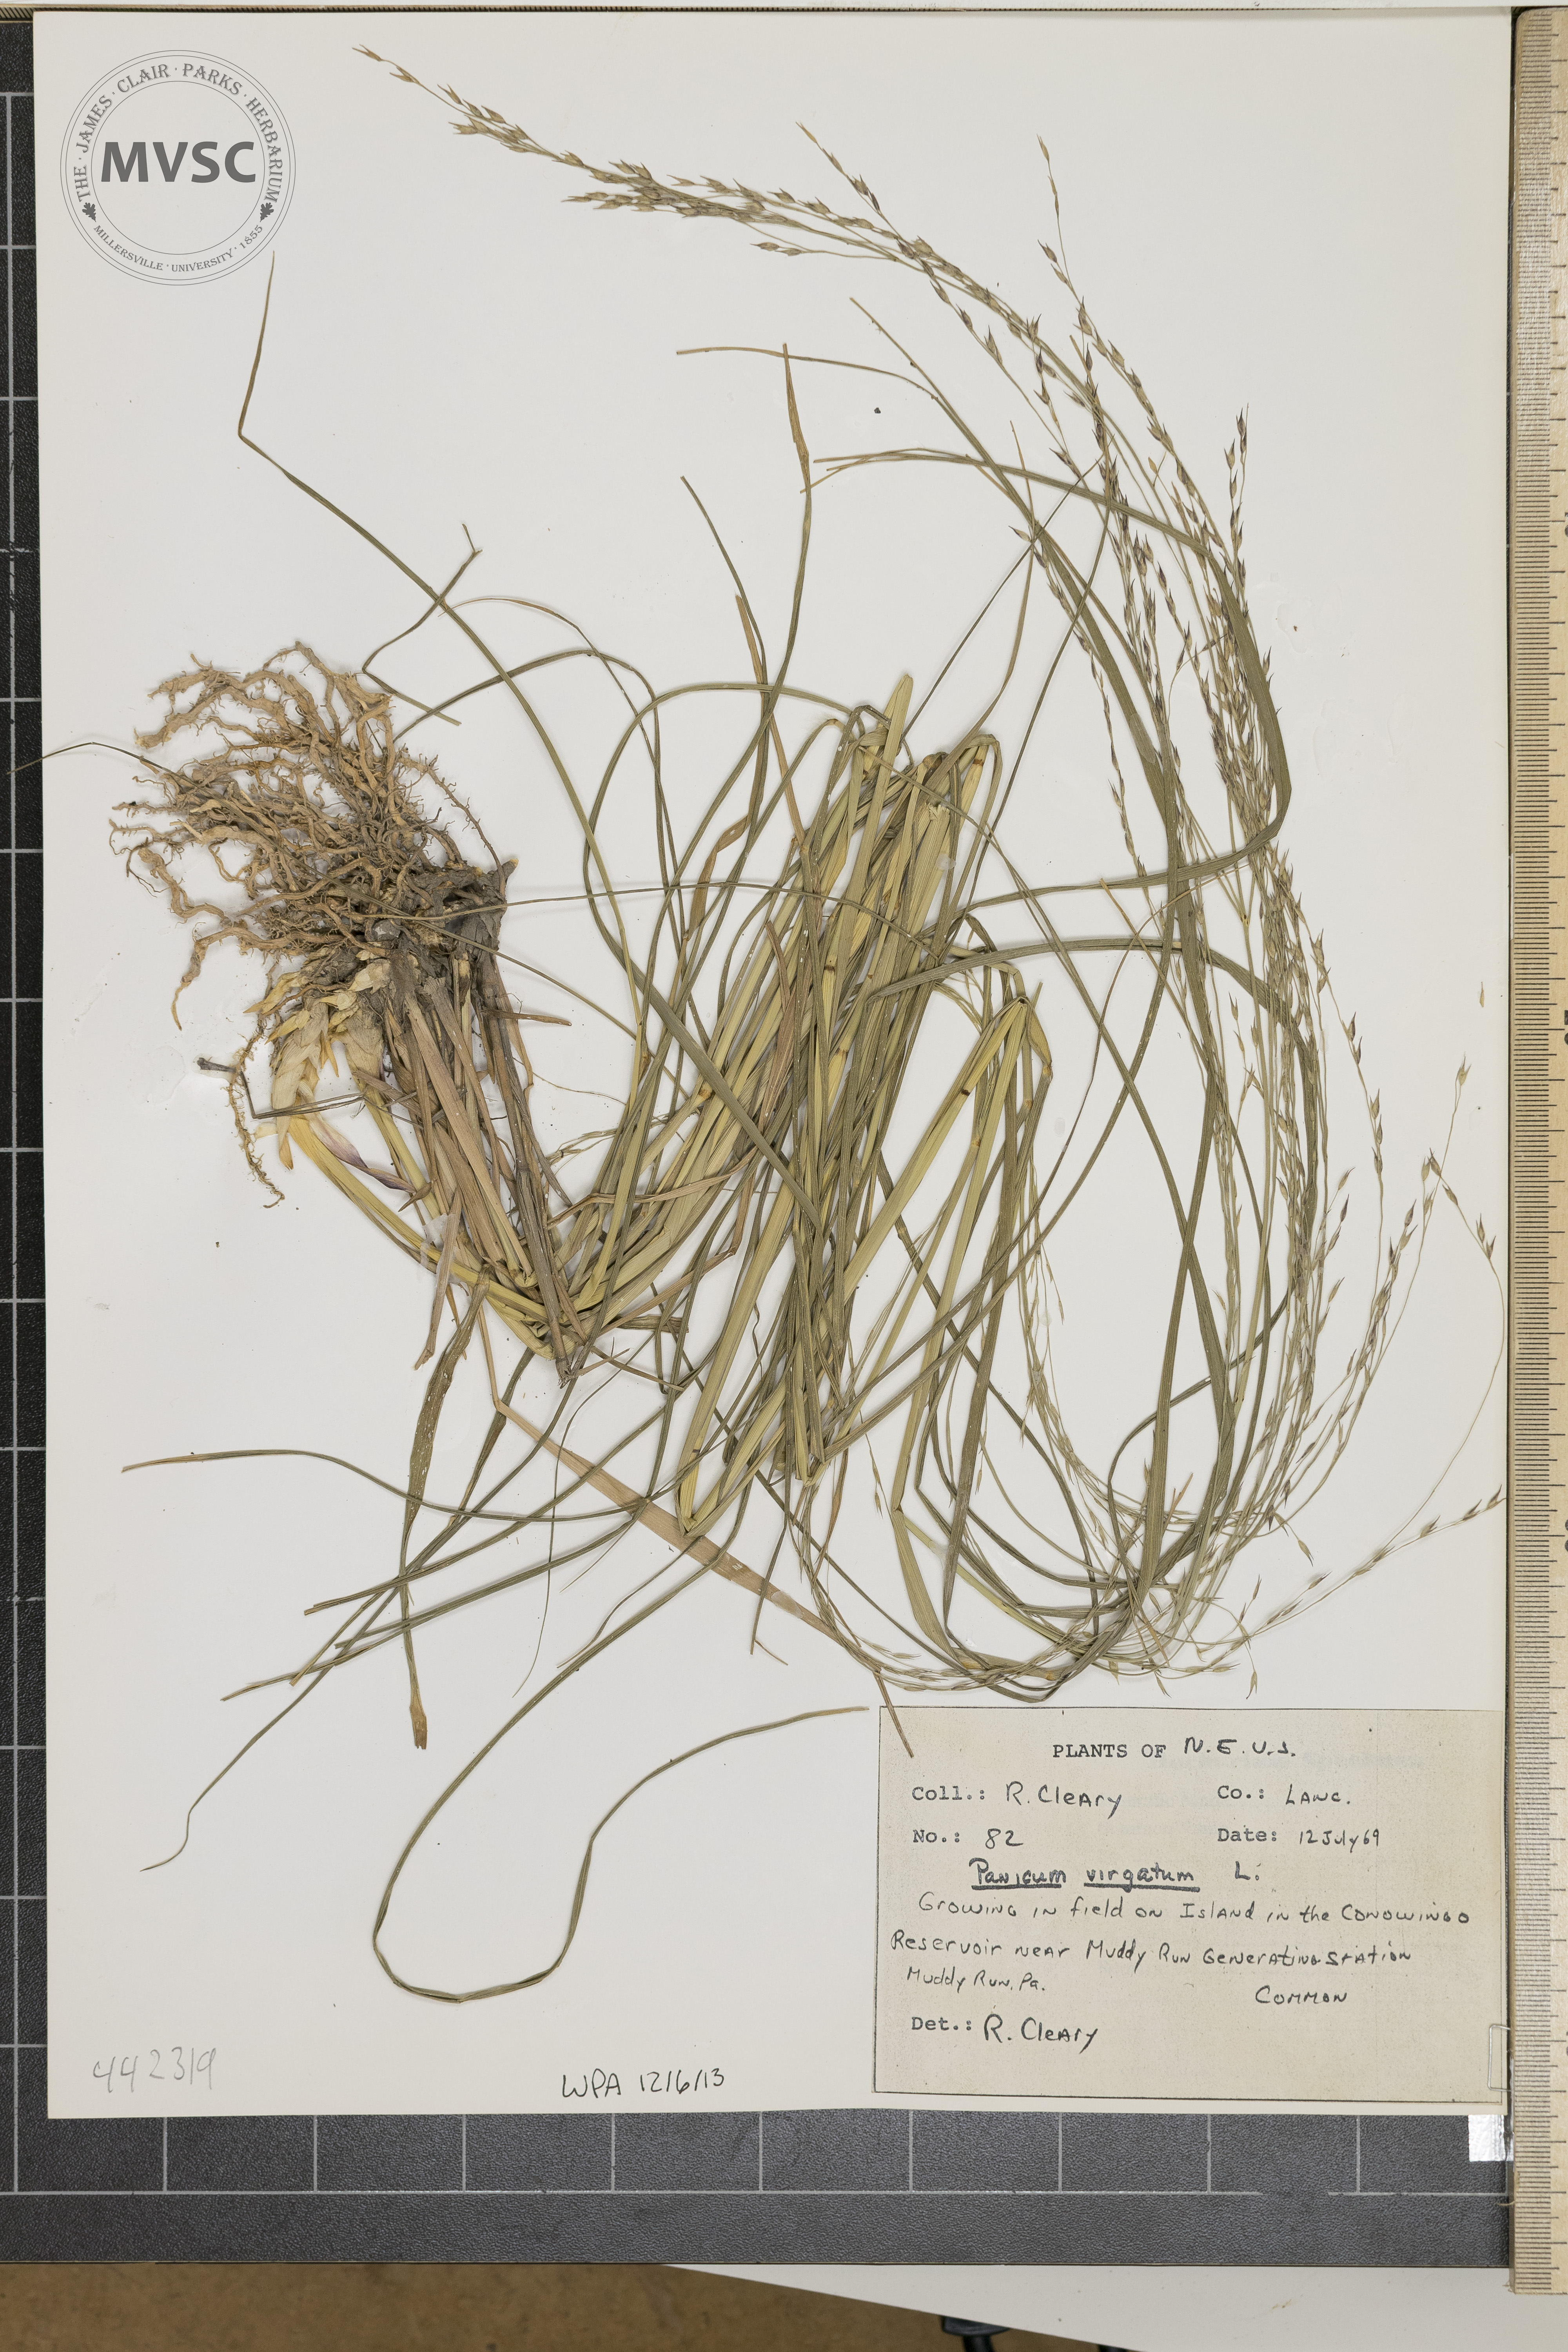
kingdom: Plantae
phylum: Tracheophyta
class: Liliopsida
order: Poales
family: Poaceae
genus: Panicum
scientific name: Panicum virgatum
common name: Switchgrass
